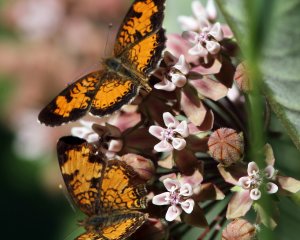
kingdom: Animalia
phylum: Arthropoda
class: Insecta
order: Lepidoptera
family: Nymphalidae
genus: Phyciodes
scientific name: Phyciodes tharos
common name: Northern Crescent
